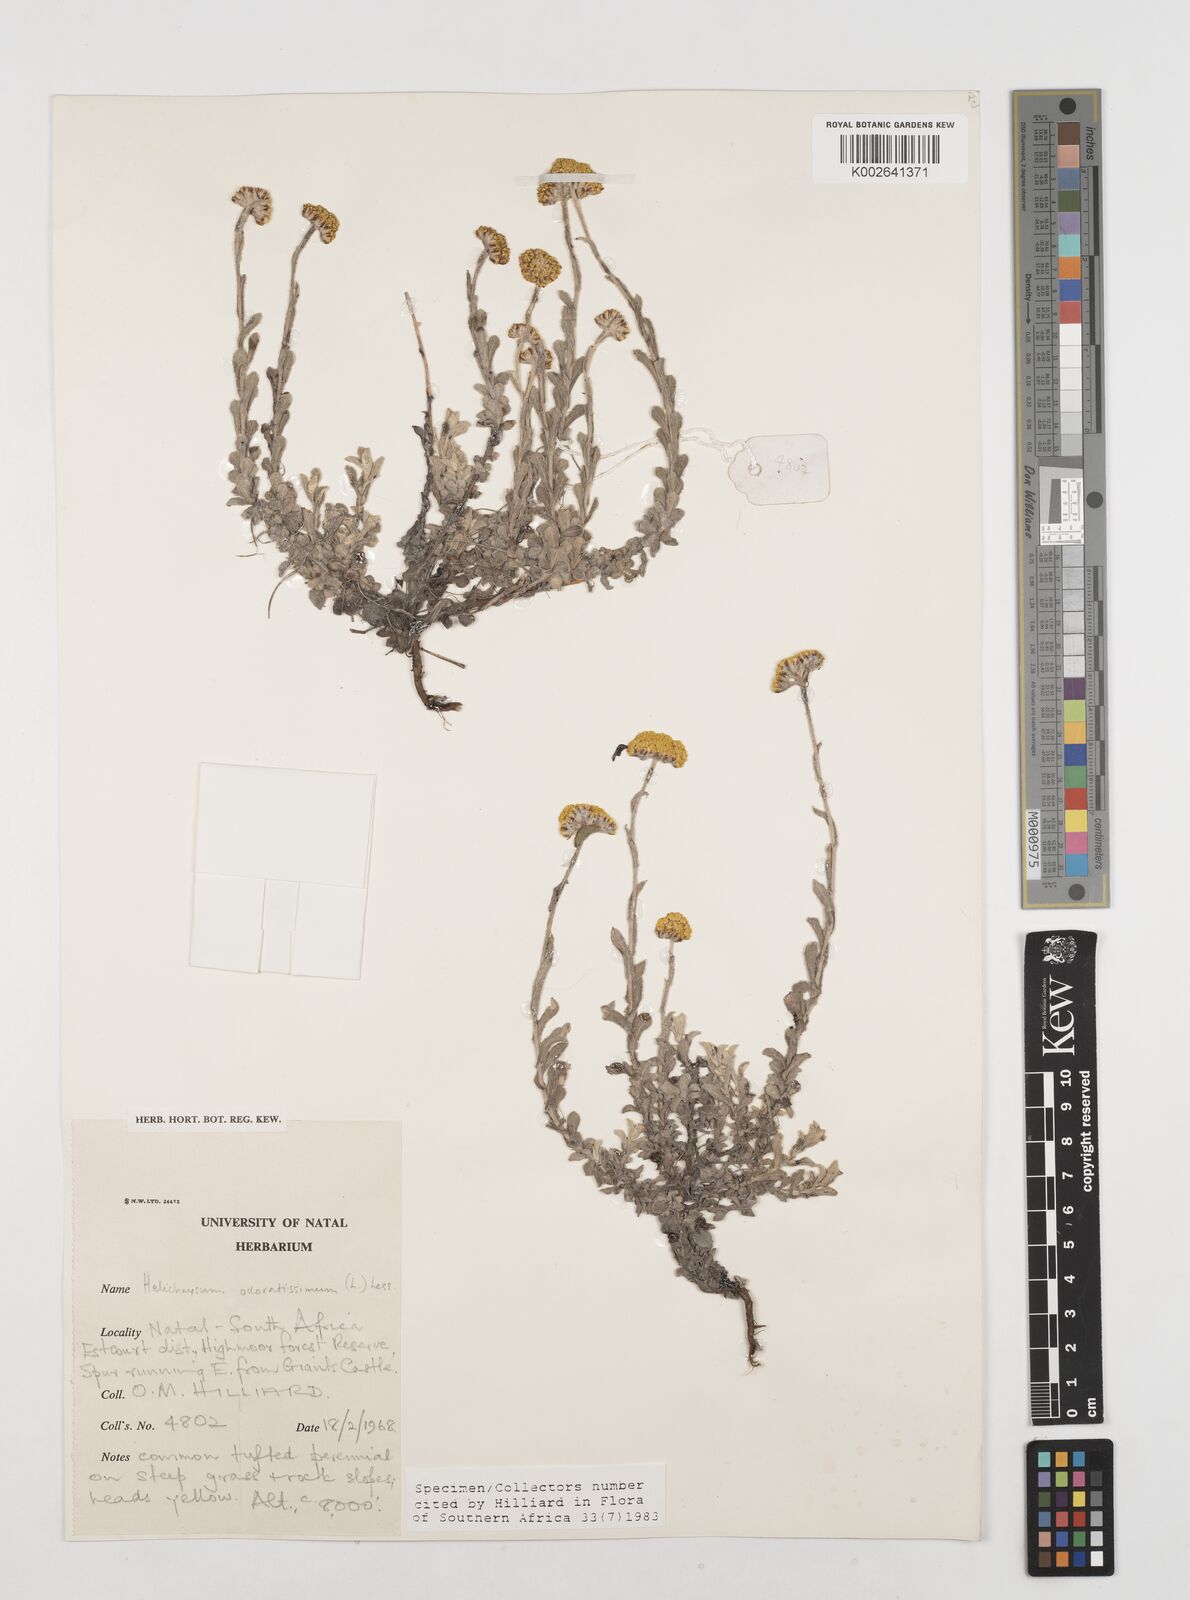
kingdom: Plantae
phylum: Tracheophyta
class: Magnoliopsida
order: Asterales
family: Asteraceae
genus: Helichrysum
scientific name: Helichrysum gymnocomum
